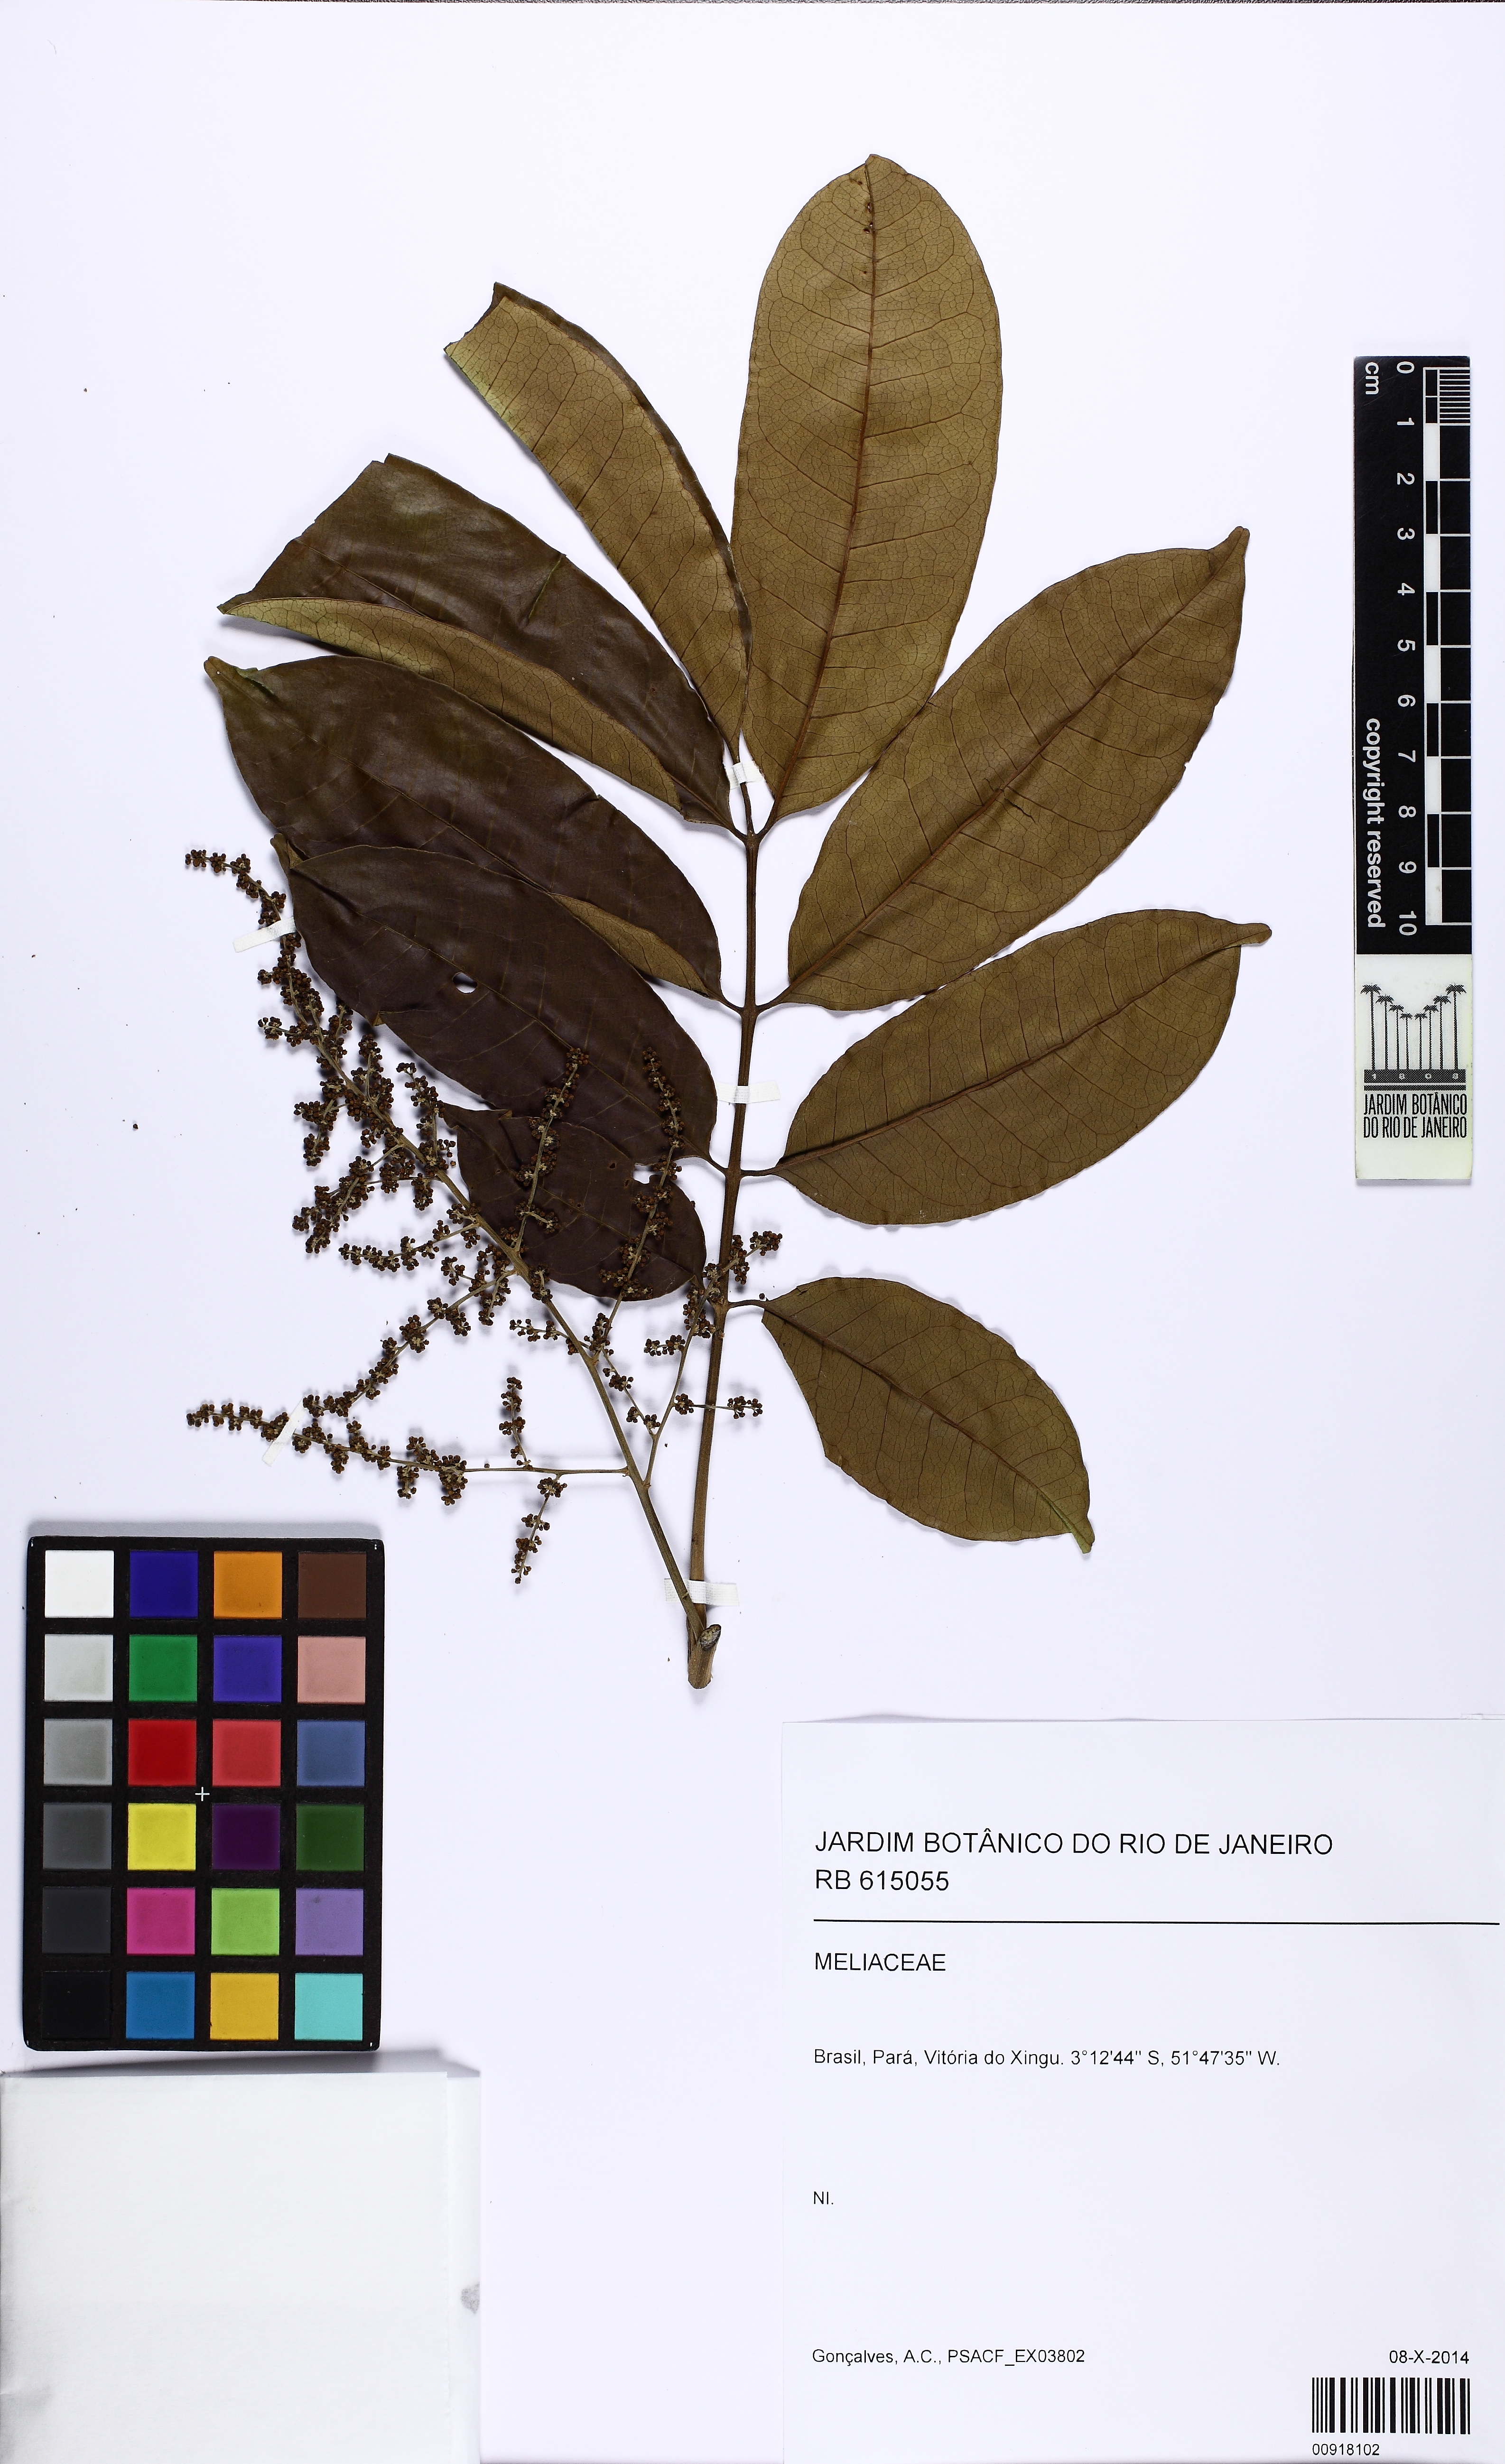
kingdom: Plantae
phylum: Tracheophyta
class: Magnoliopsida
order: Sapindales
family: Anacardiaceae
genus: Tapirira
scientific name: Tapirira
